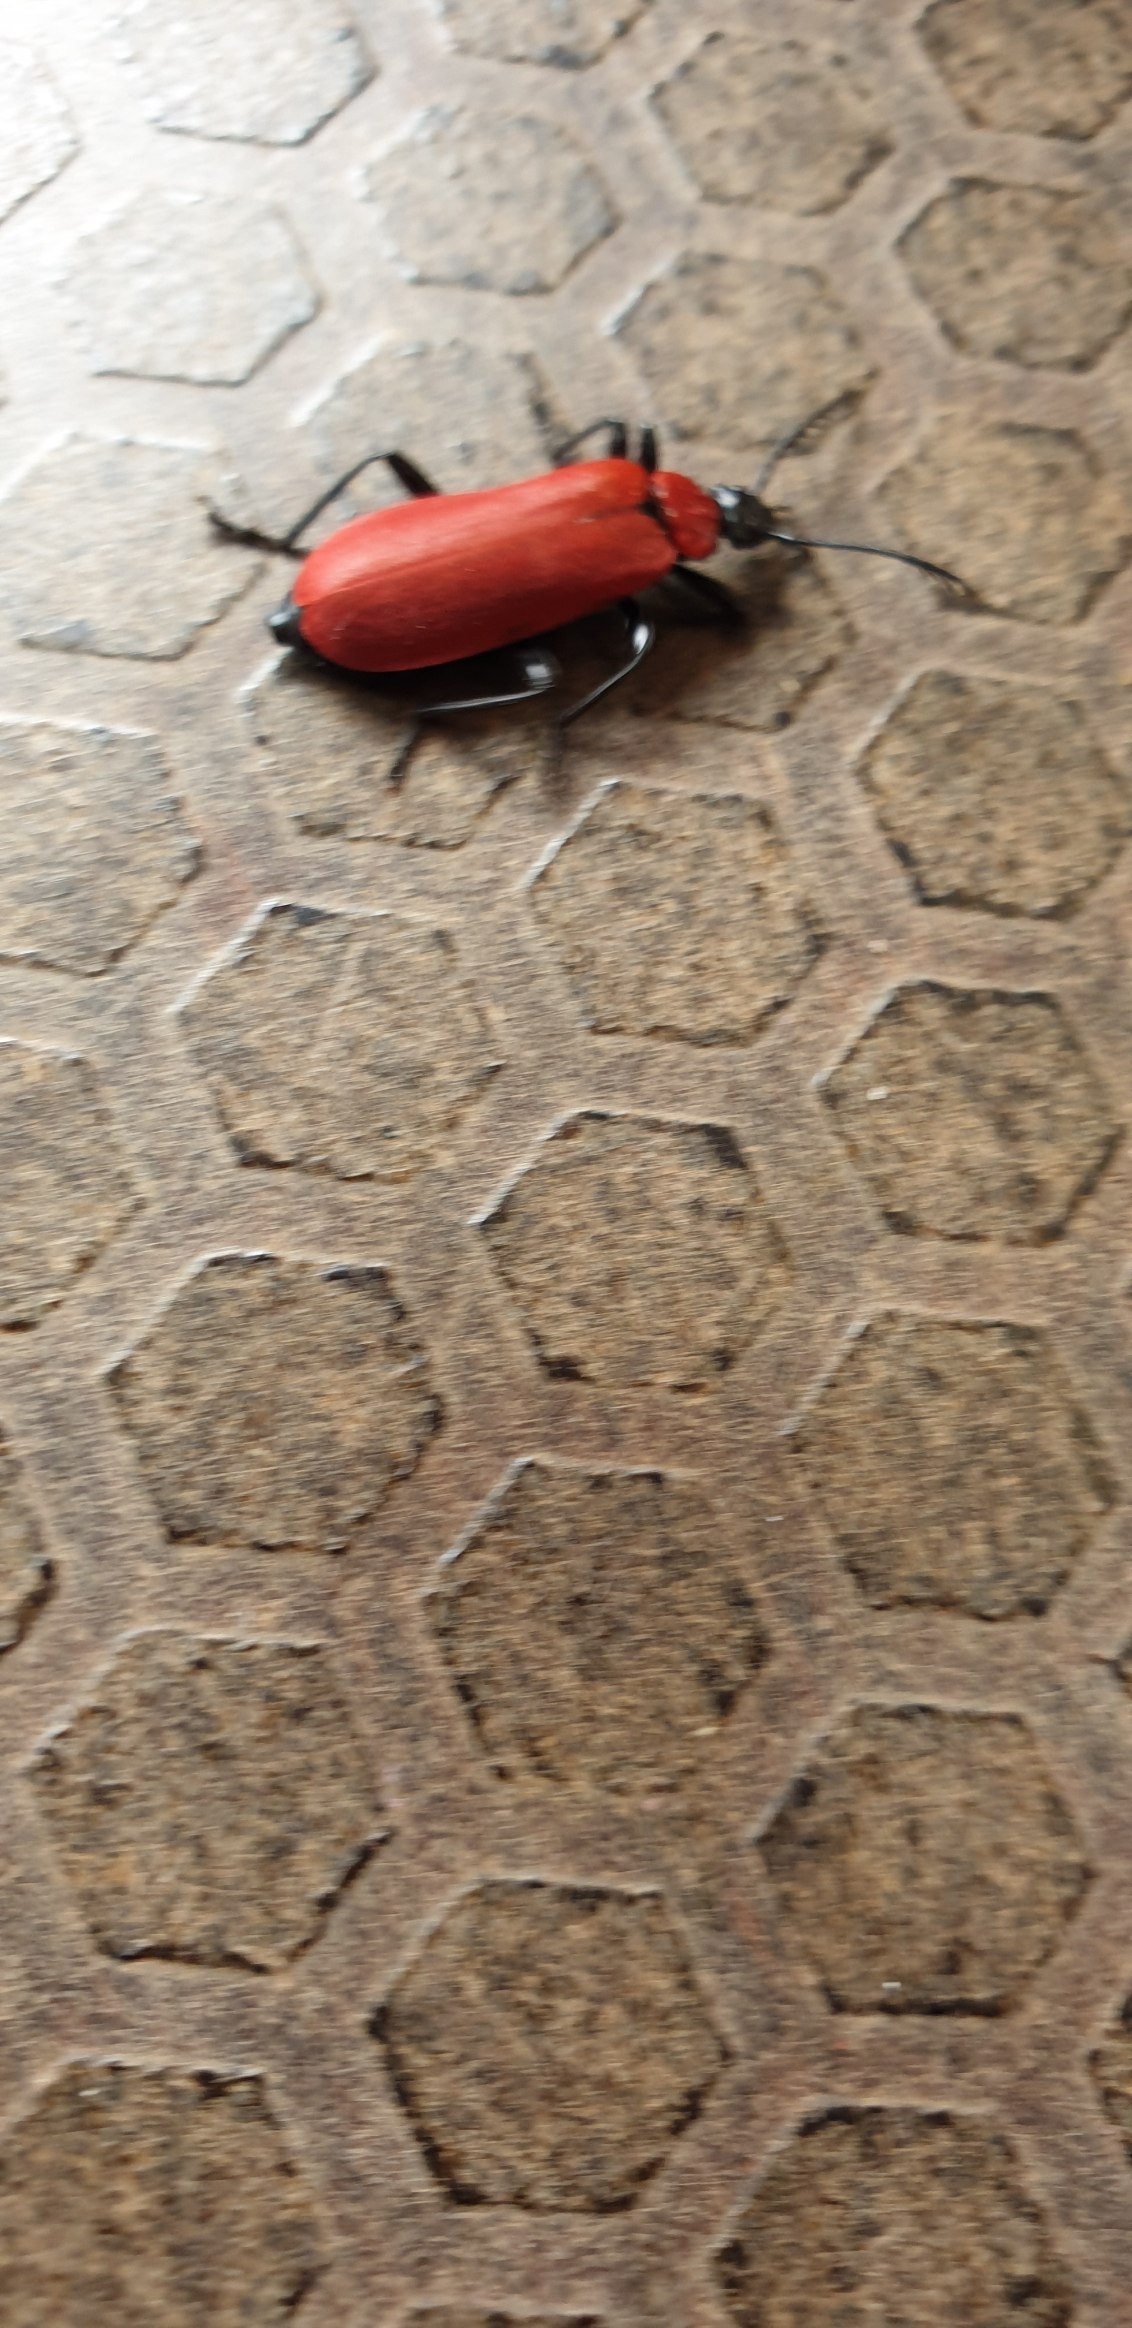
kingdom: Animalia
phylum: Arthropoda
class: Insecta
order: Coleoptera
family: Pyrochroidae
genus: Pyrochroa
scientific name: Pyrochroa coccinea
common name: Sorthovedet kardinalbille
